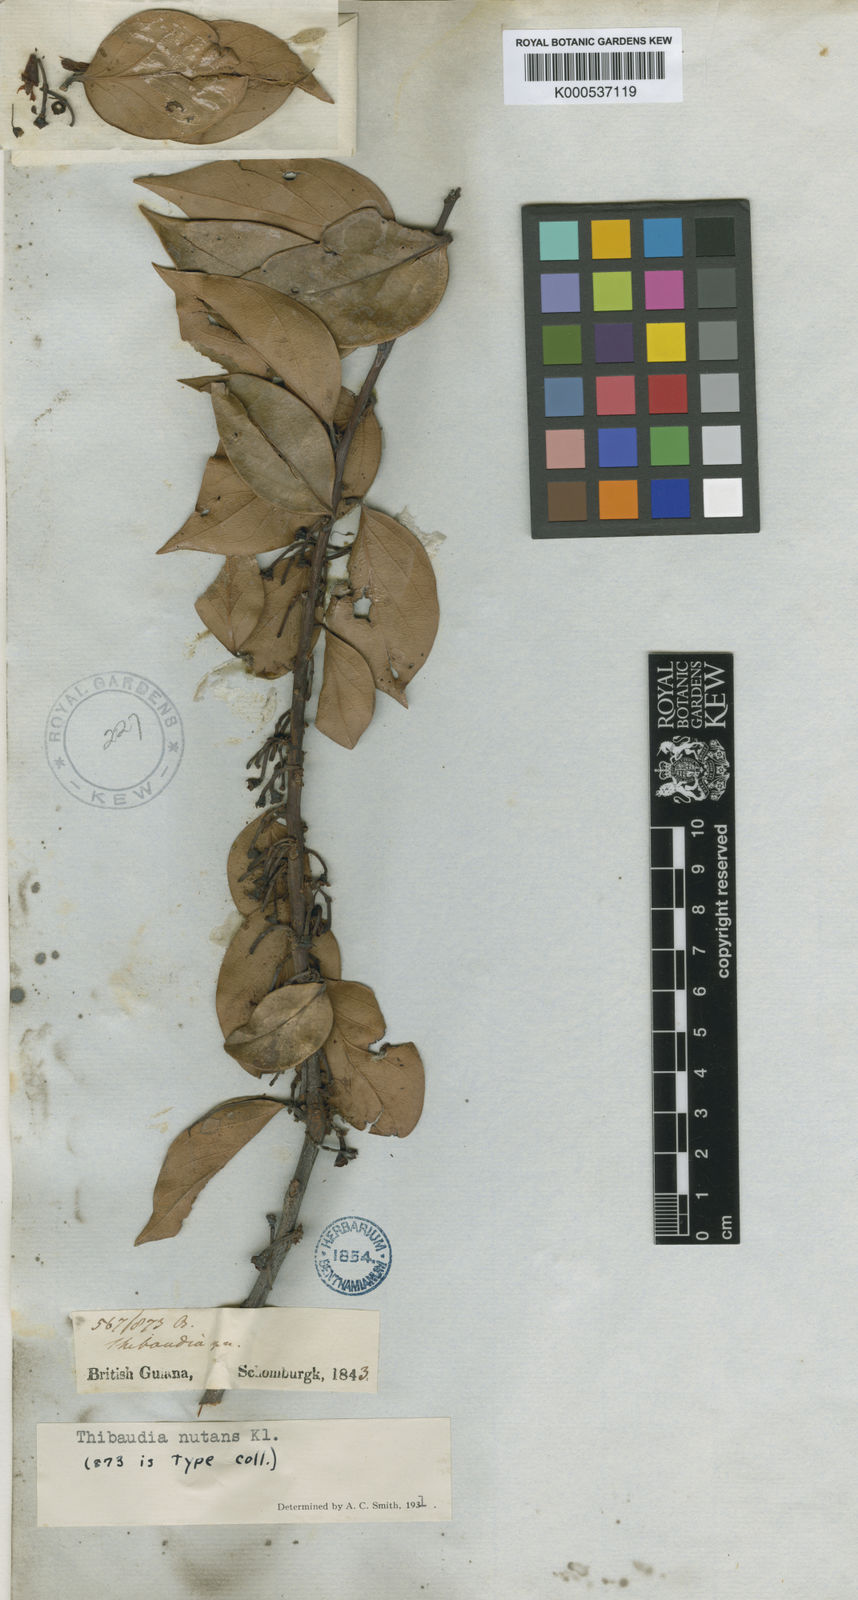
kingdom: Plantae
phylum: Tracheophyta
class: Magnoliopsida
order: Ericales
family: Ericaceae
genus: Psammisia
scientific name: Psammisia coarctata
